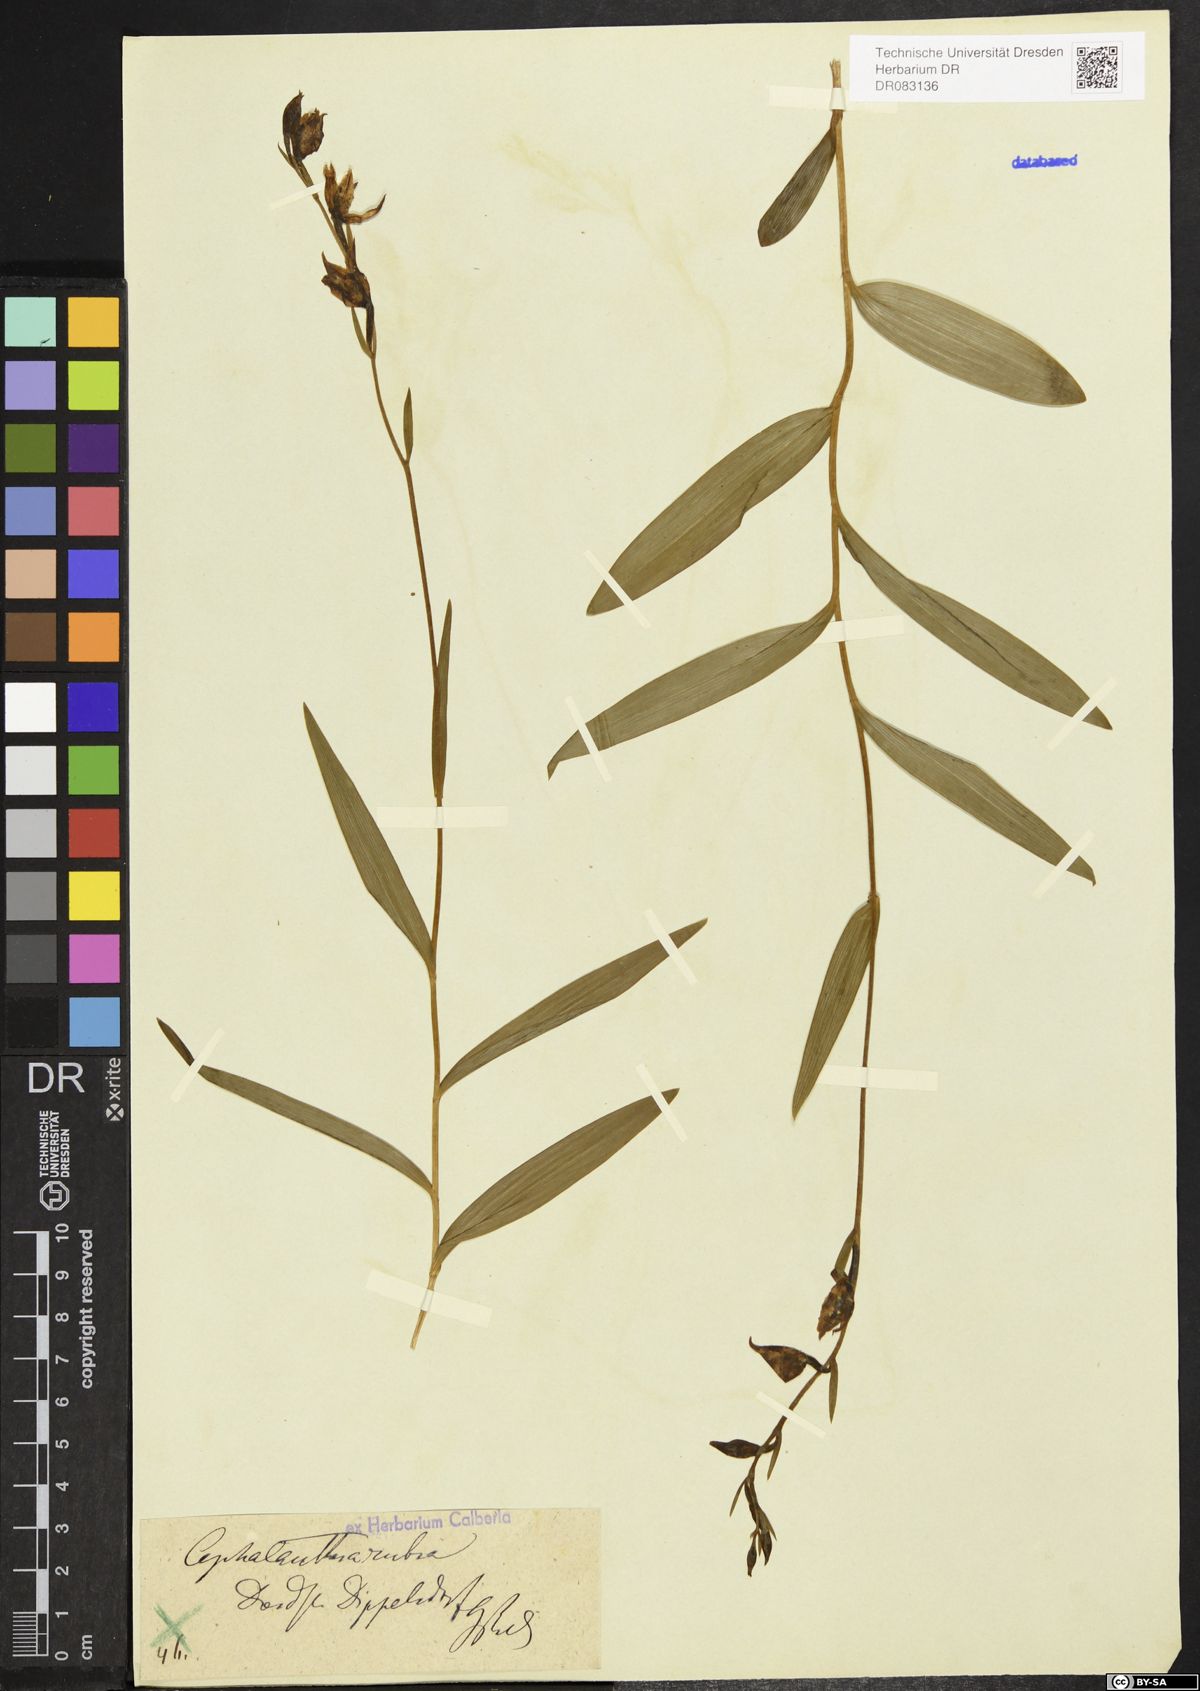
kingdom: Plantae
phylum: Tracheophyta
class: Liliopsida
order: Asparagales
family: Orchidaceae
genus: Cephalanthera
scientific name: Cephalanthera rubra
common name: Red helleborine
